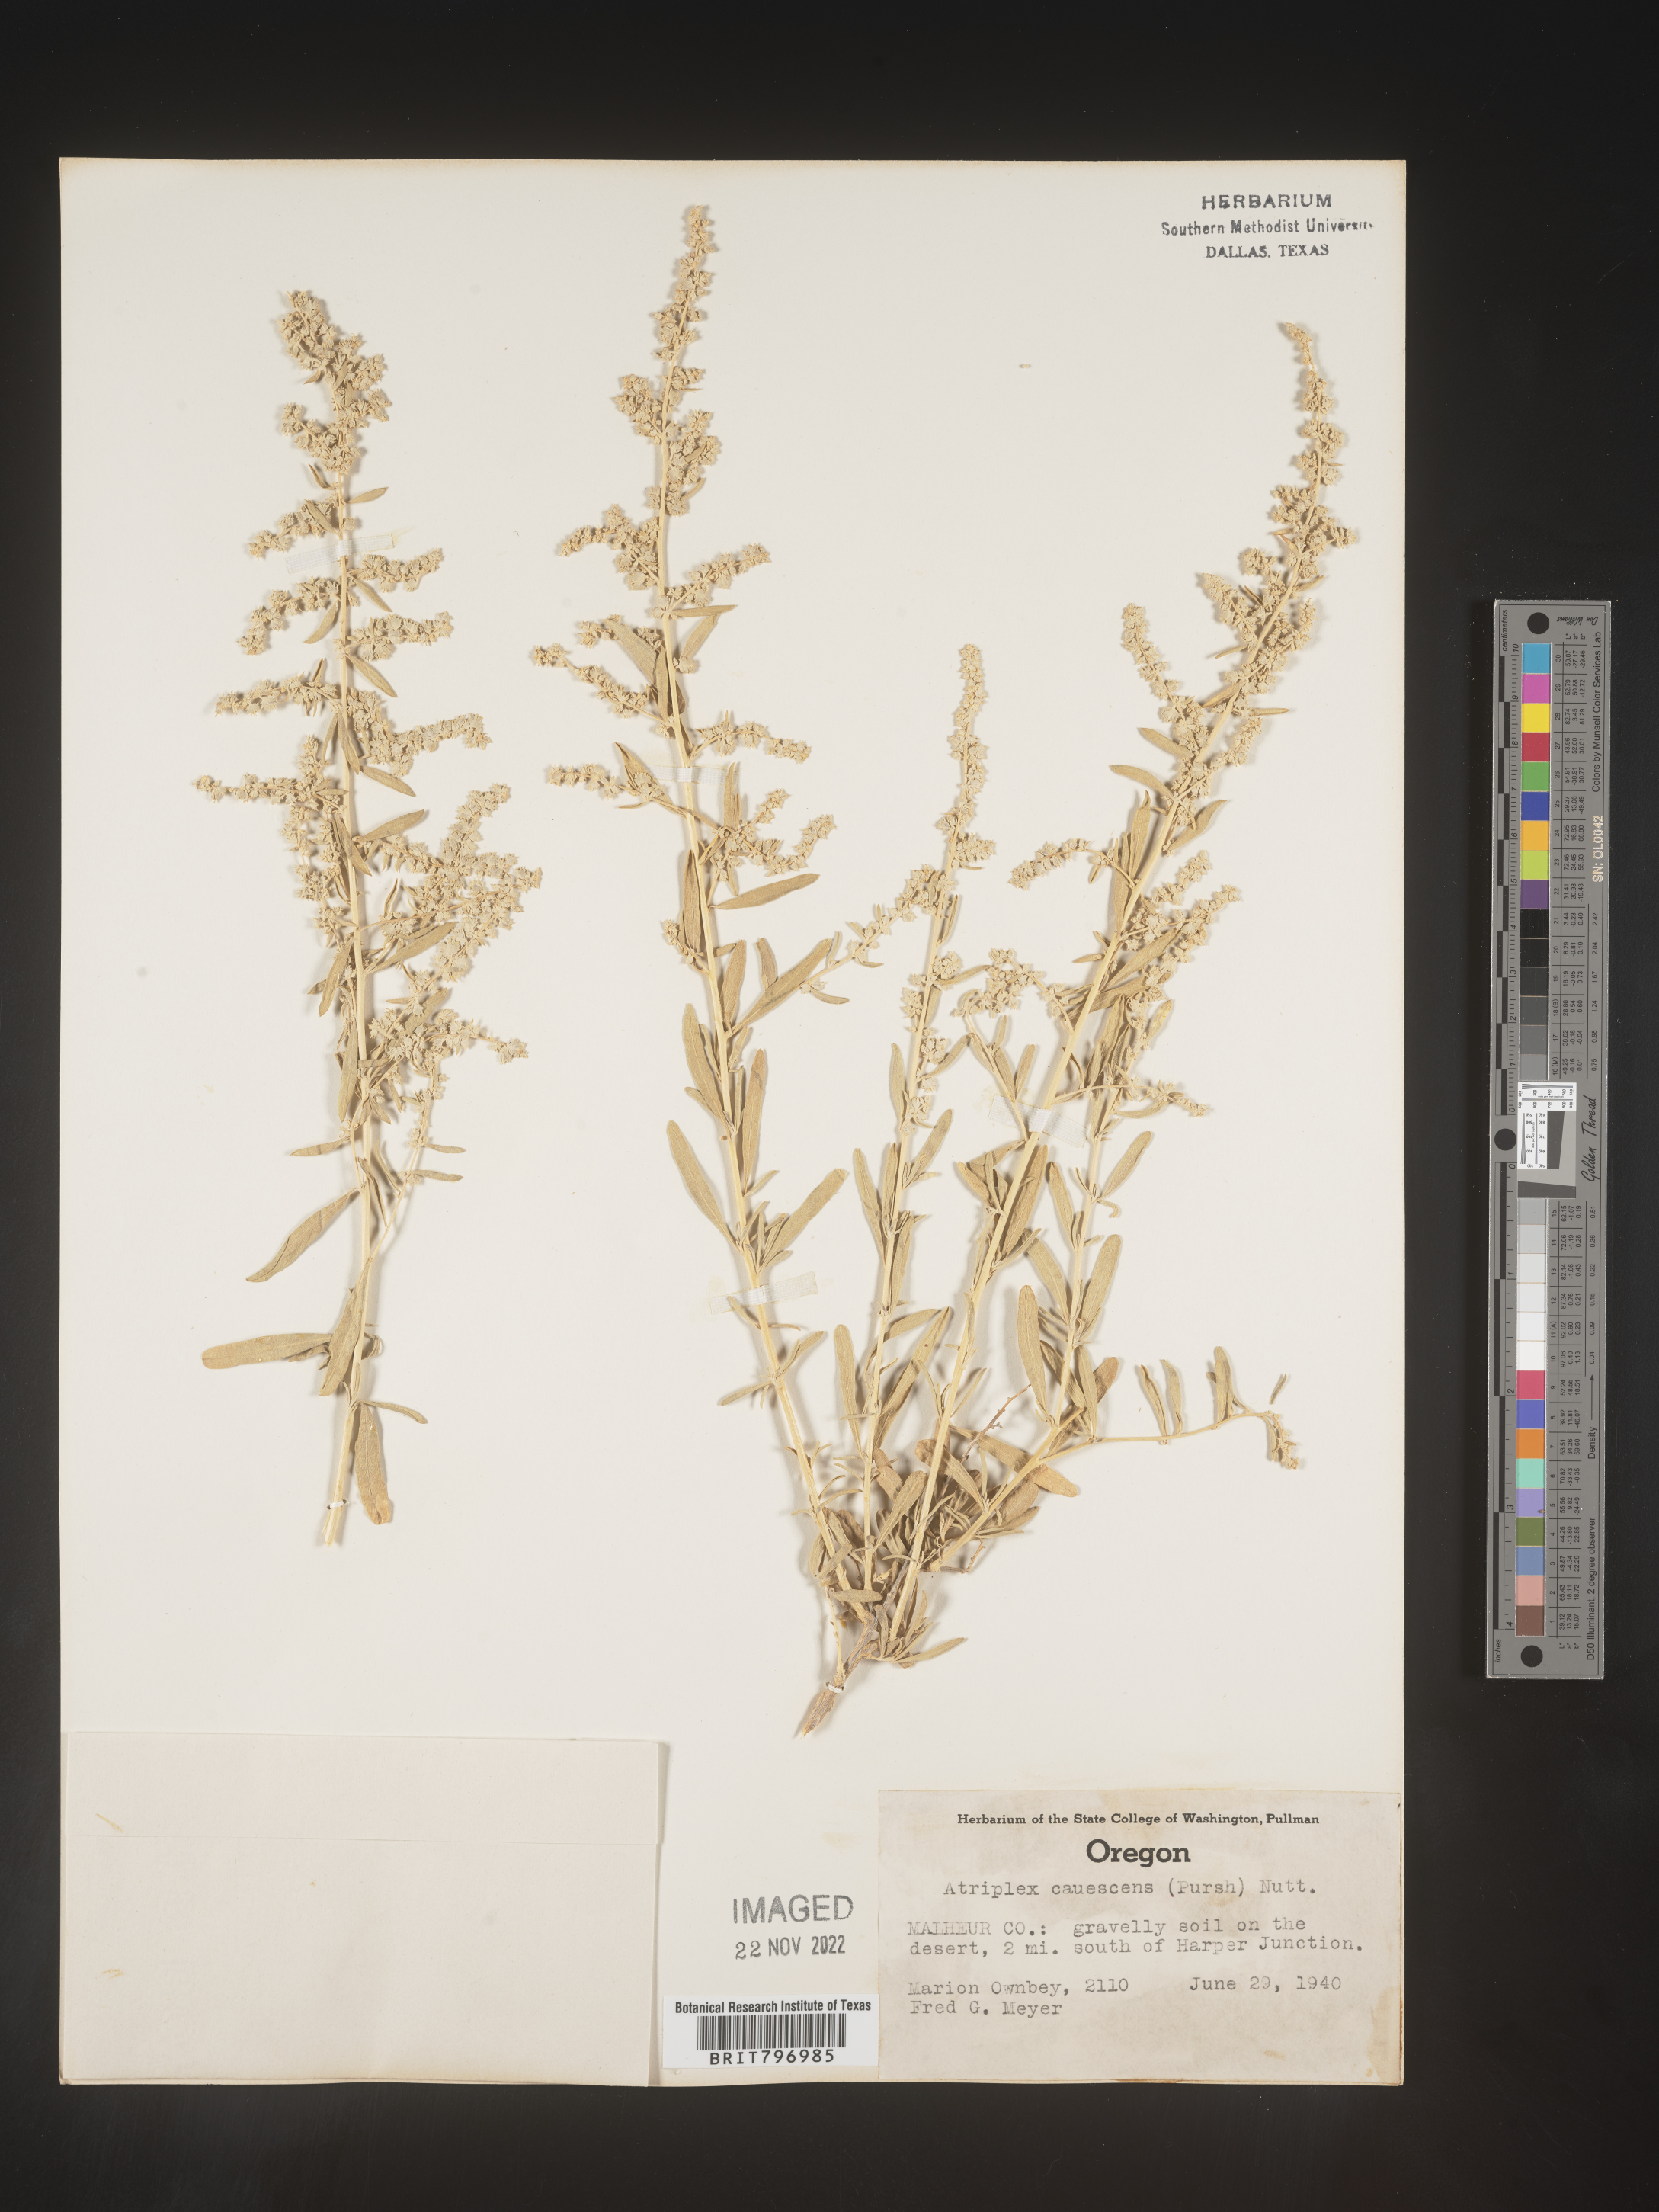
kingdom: Plantae
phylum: Tracheophyta
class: Magnoliopsida
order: Caryophyllales
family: Amaranthaceae
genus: Atriplex
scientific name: Atriplex canescens
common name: Four-wing saltbush
